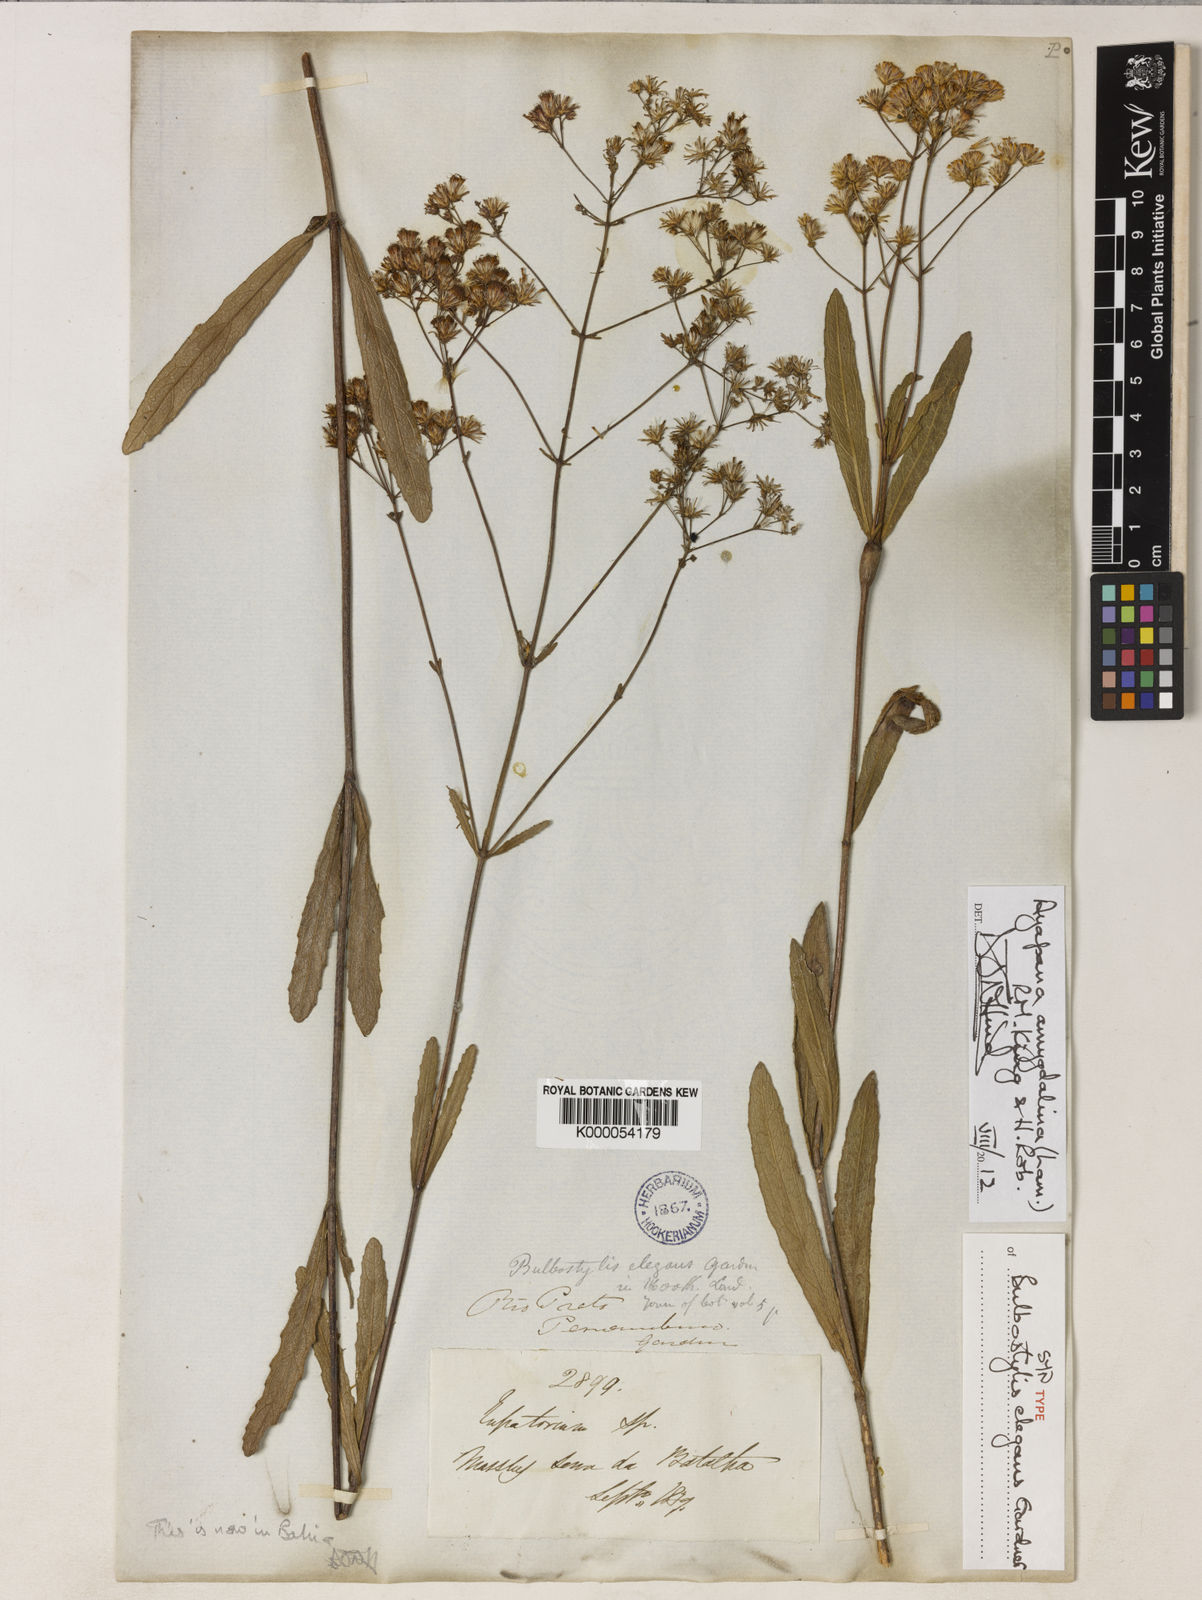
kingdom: Plantae
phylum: Tracheophyta
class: Magnoliopsida
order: Asterales
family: Asteraceae
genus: Ayapana
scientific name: Ayapana amygdalina
